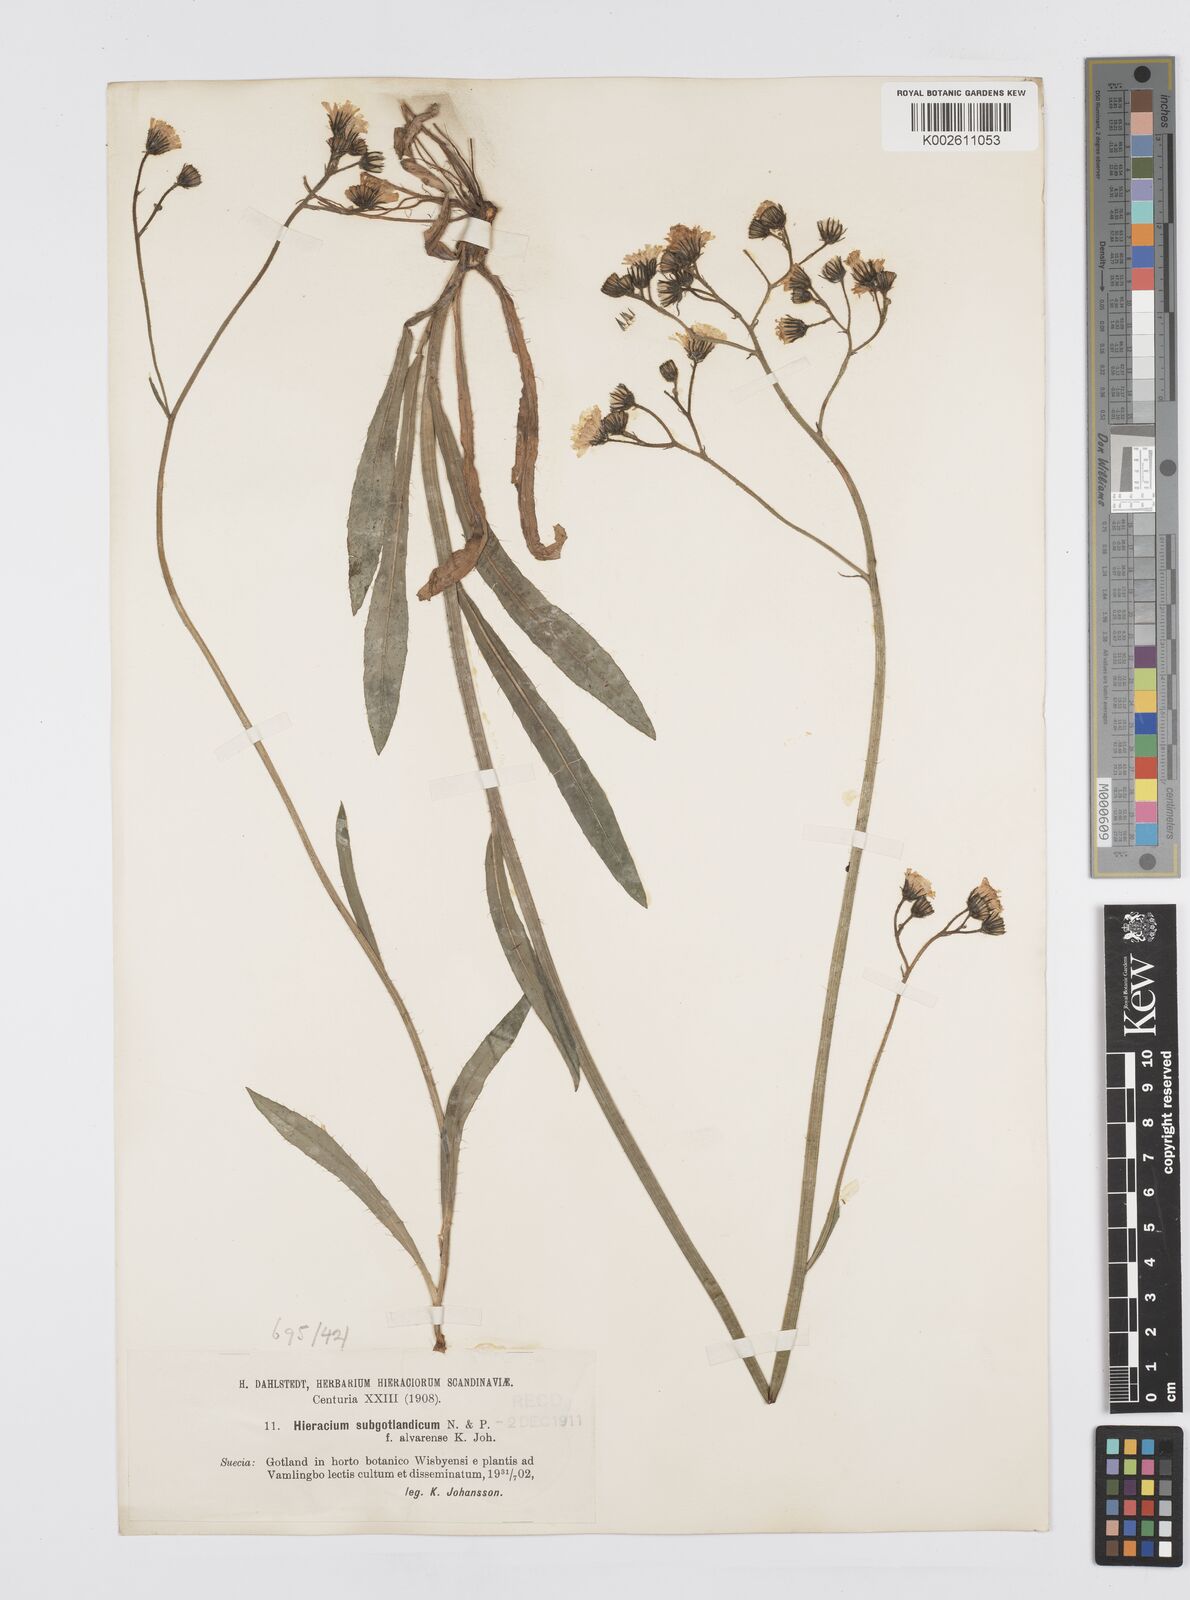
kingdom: Plantae
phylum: Tracheophyta
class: Magnoliopsida
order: Asterales
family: Asteraceae
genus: Pilosella
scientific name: Pilosella piloselloides
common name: Glaucous king-devil
